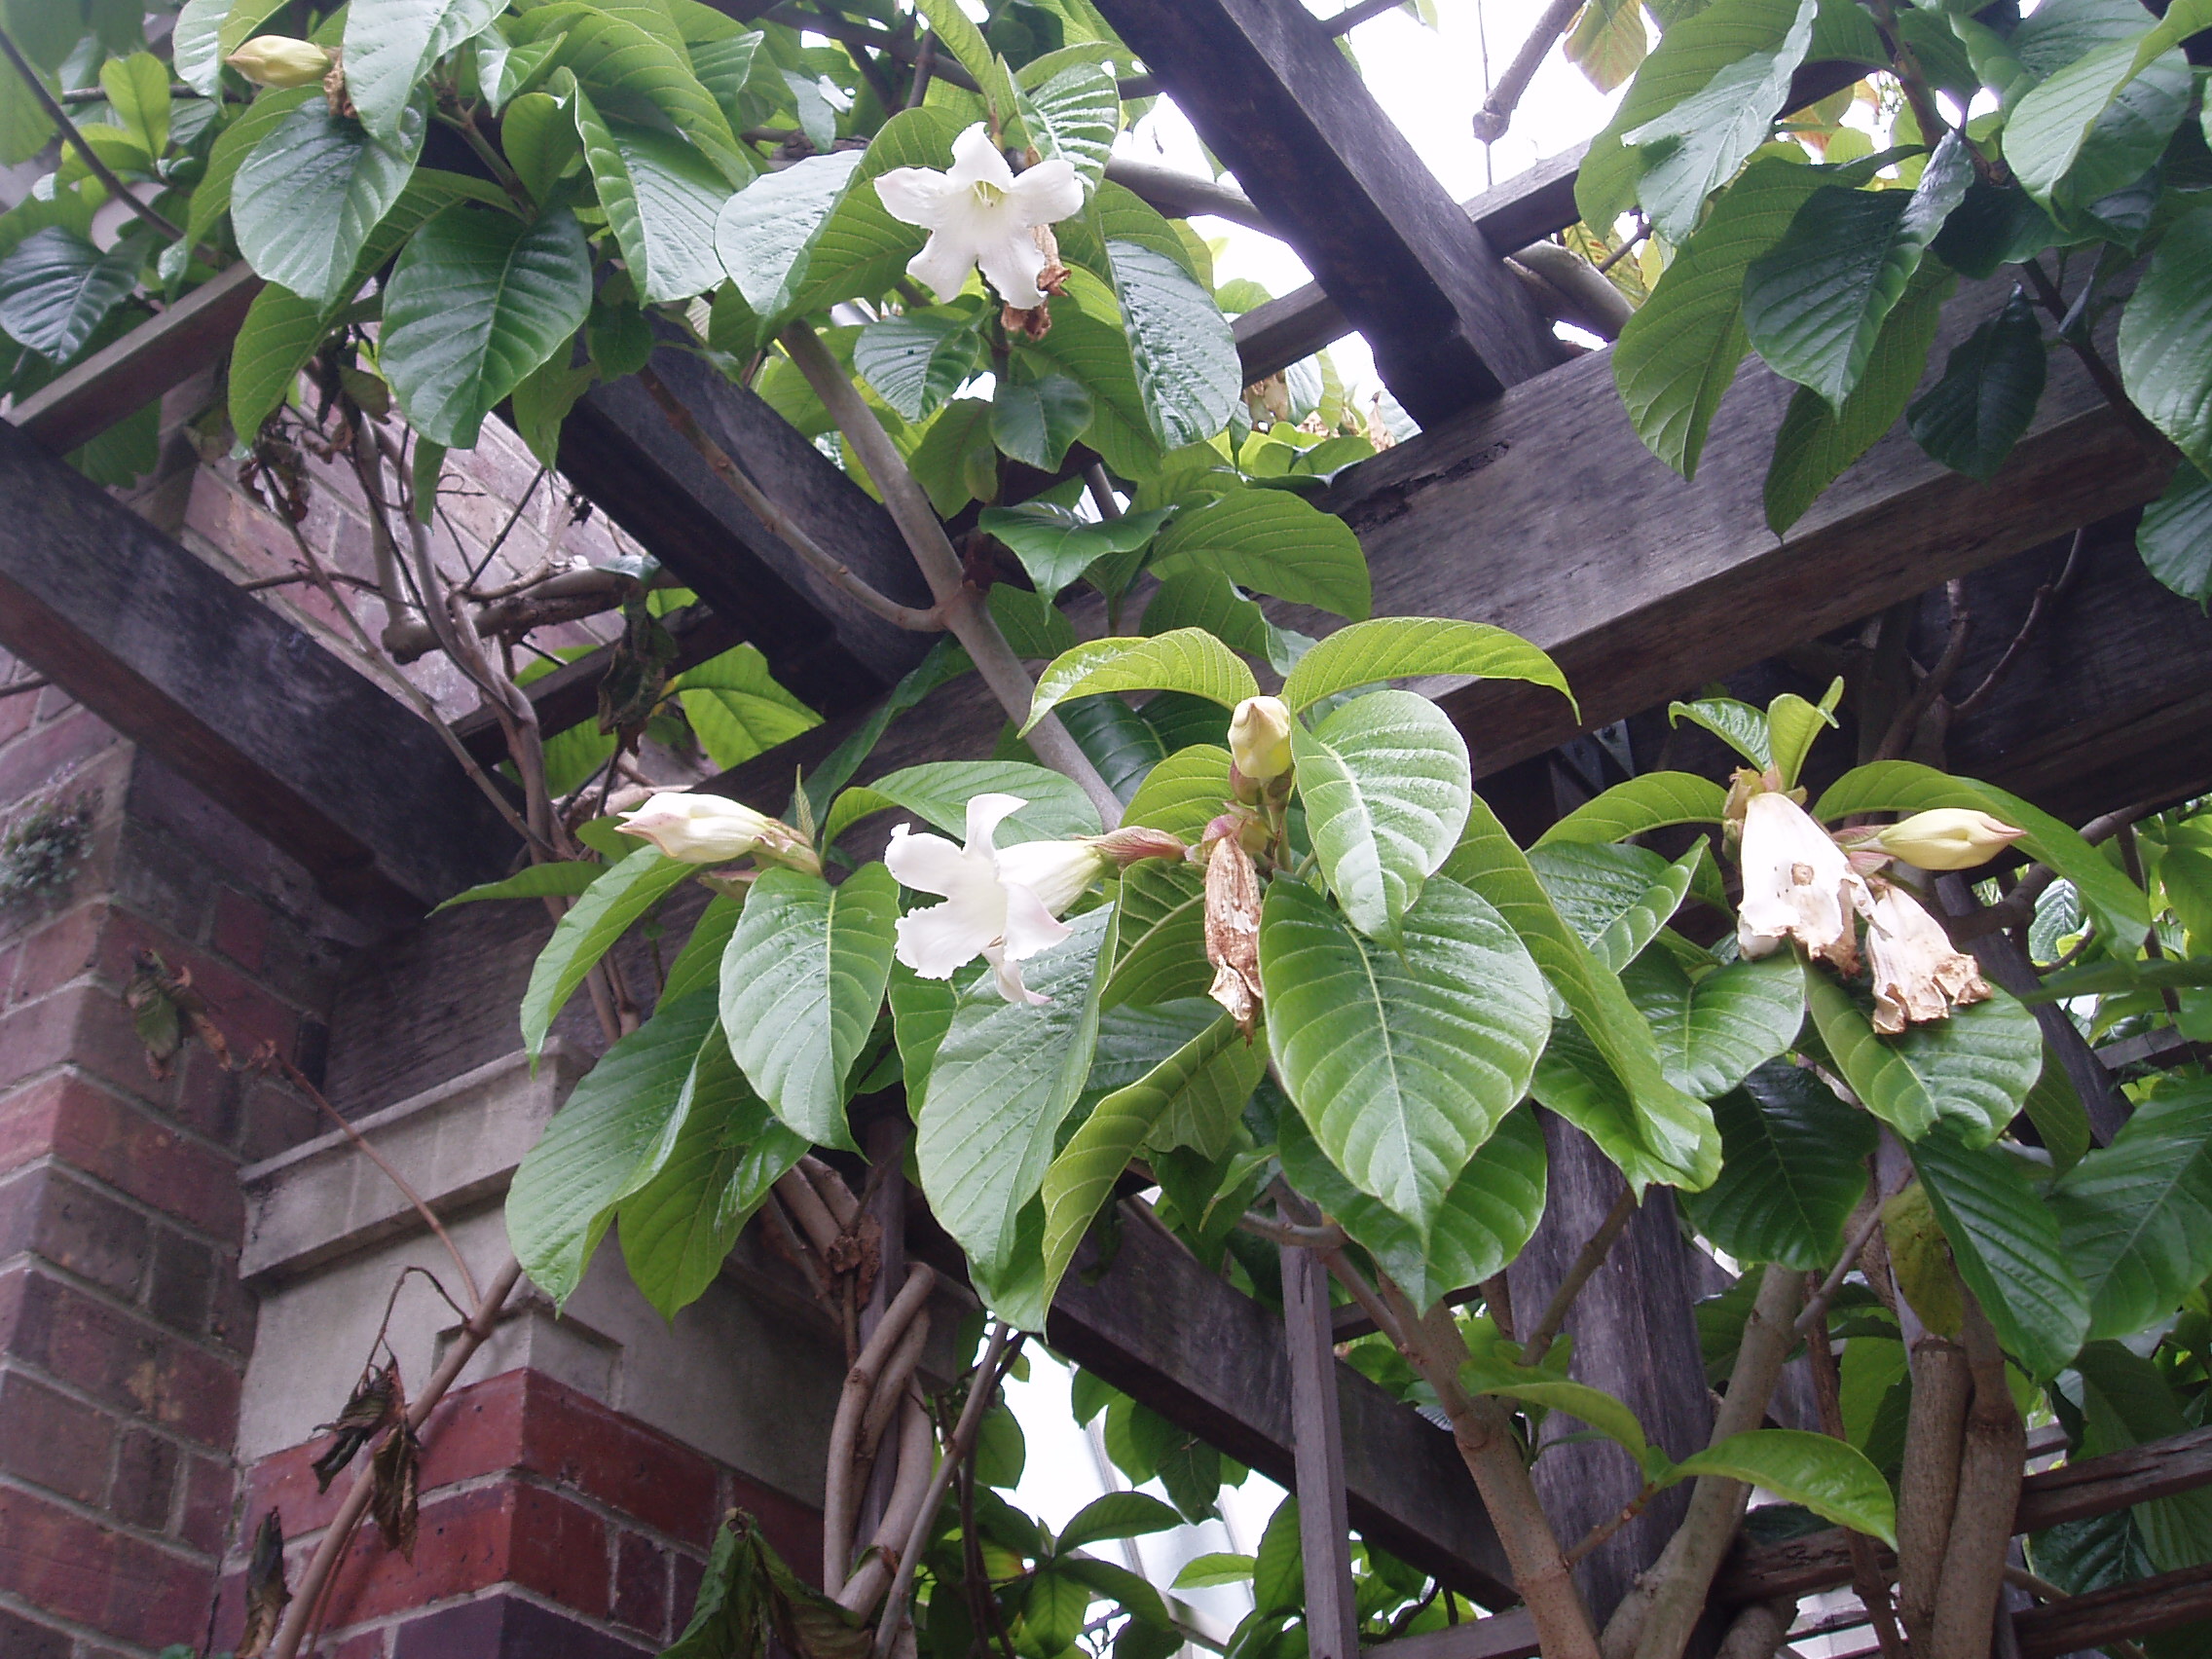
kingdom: Plantae
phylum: Tracheophyta
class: Magnoliopsida
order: Gentianales
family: Apocynaceae
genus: Beaumontia
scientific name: Beaumontia grandiflora
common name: Easter-lily-vine
